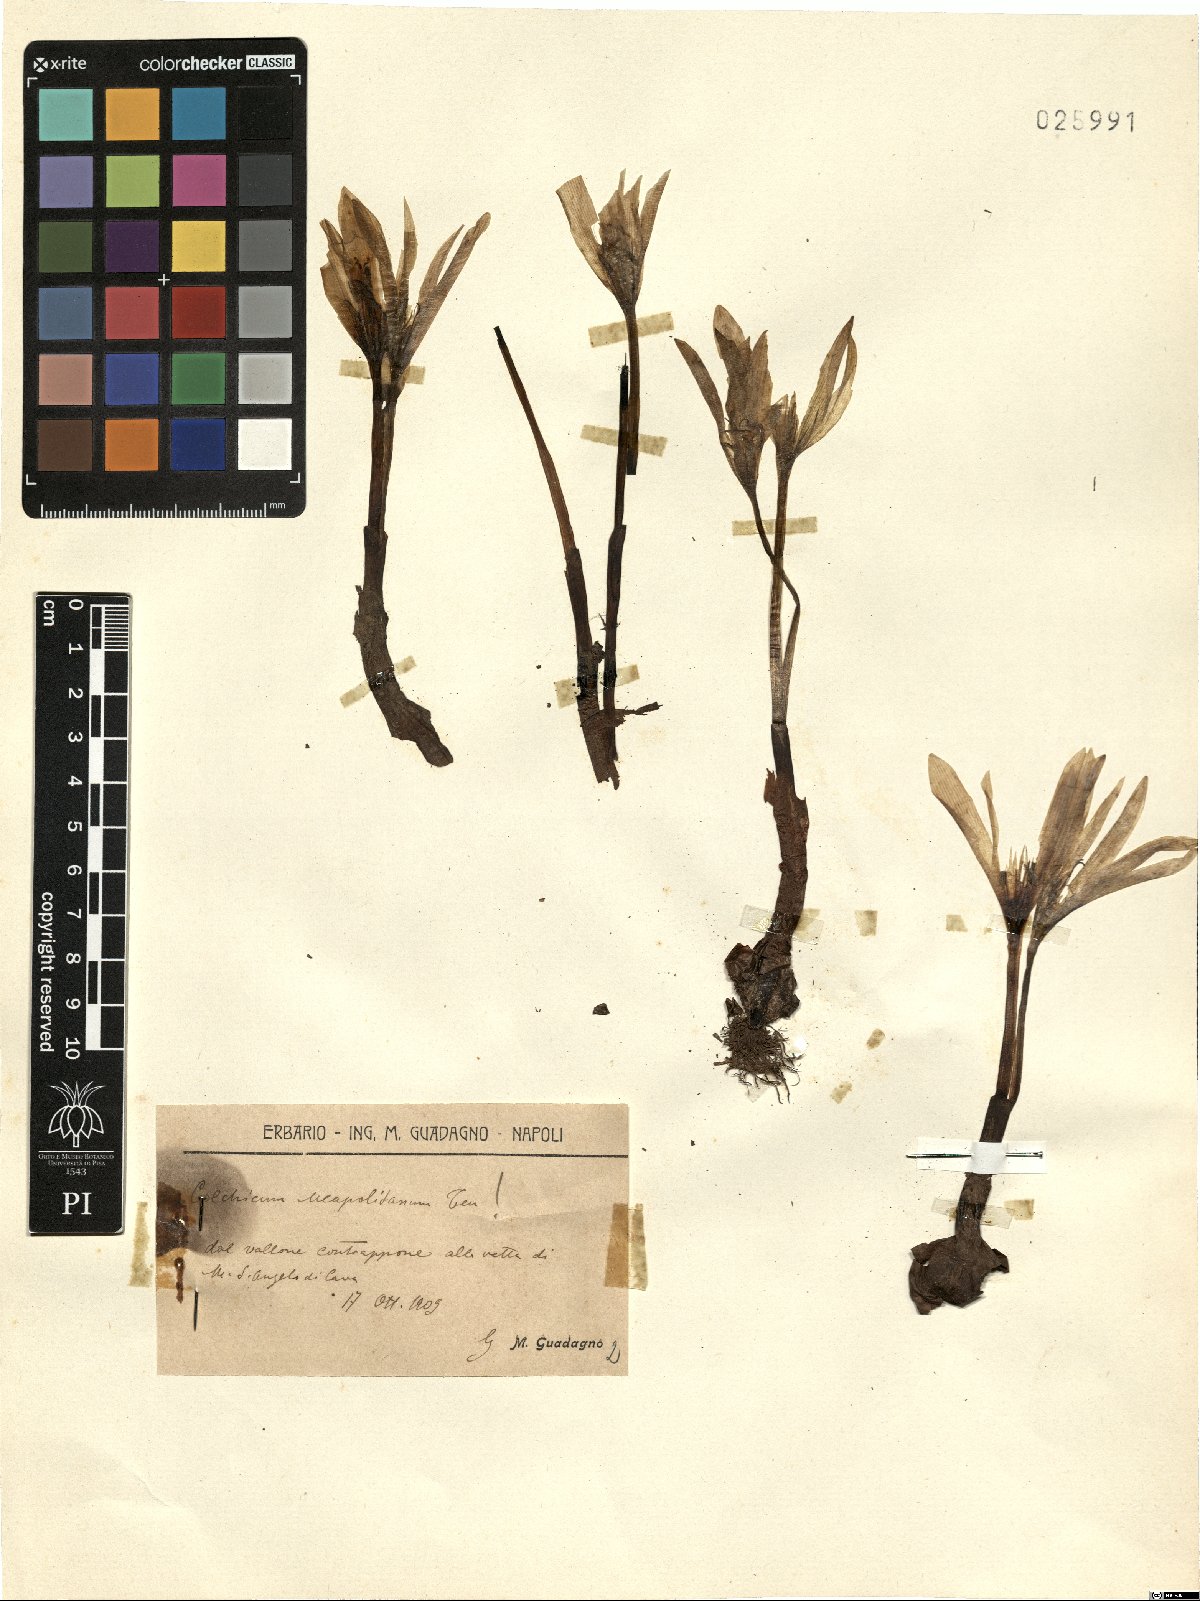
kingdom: Plantae
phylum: Tracheophyta
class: Liliopsida
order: Liliales
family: Colchicaceae
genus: Colchicum
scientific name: Colchicum neapolitanum
